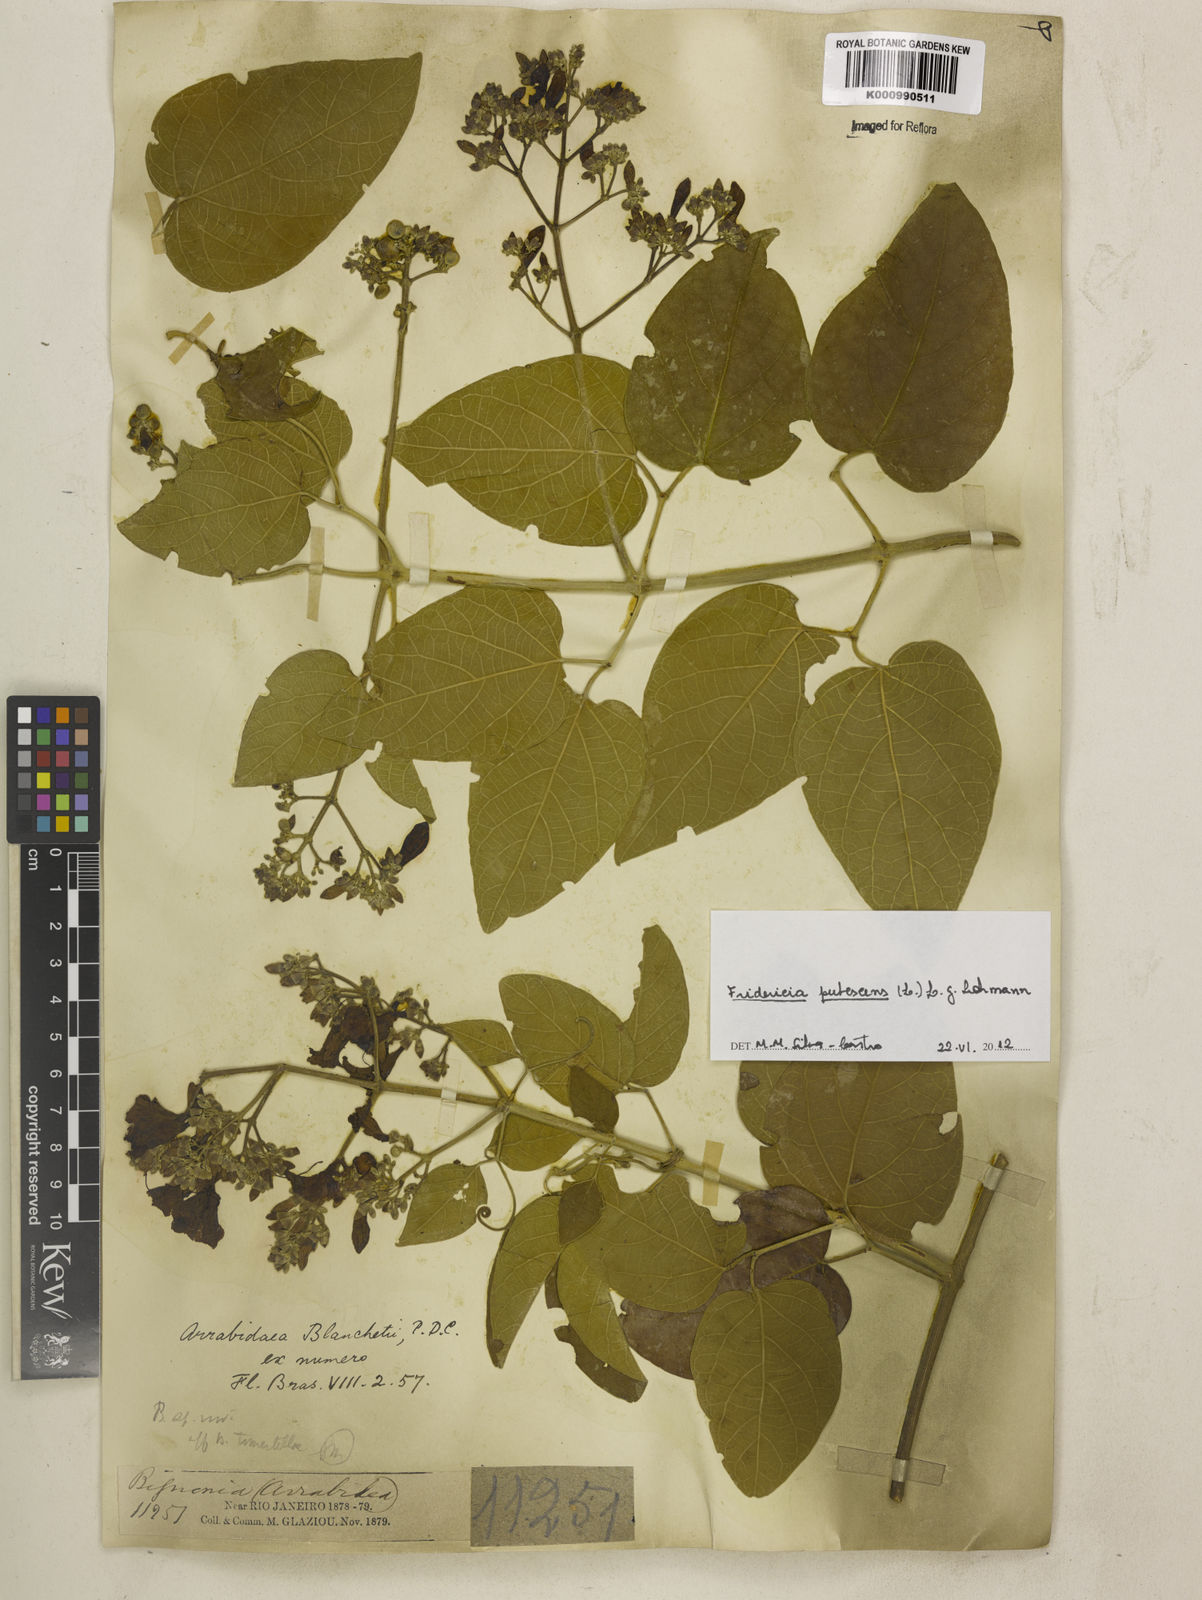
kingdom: Plantae
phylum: Tracheophyta
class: Magnoliopsida
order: Lamiales
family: Bignoniaceae
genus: Fridericia
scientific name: Fridericia pubescens
